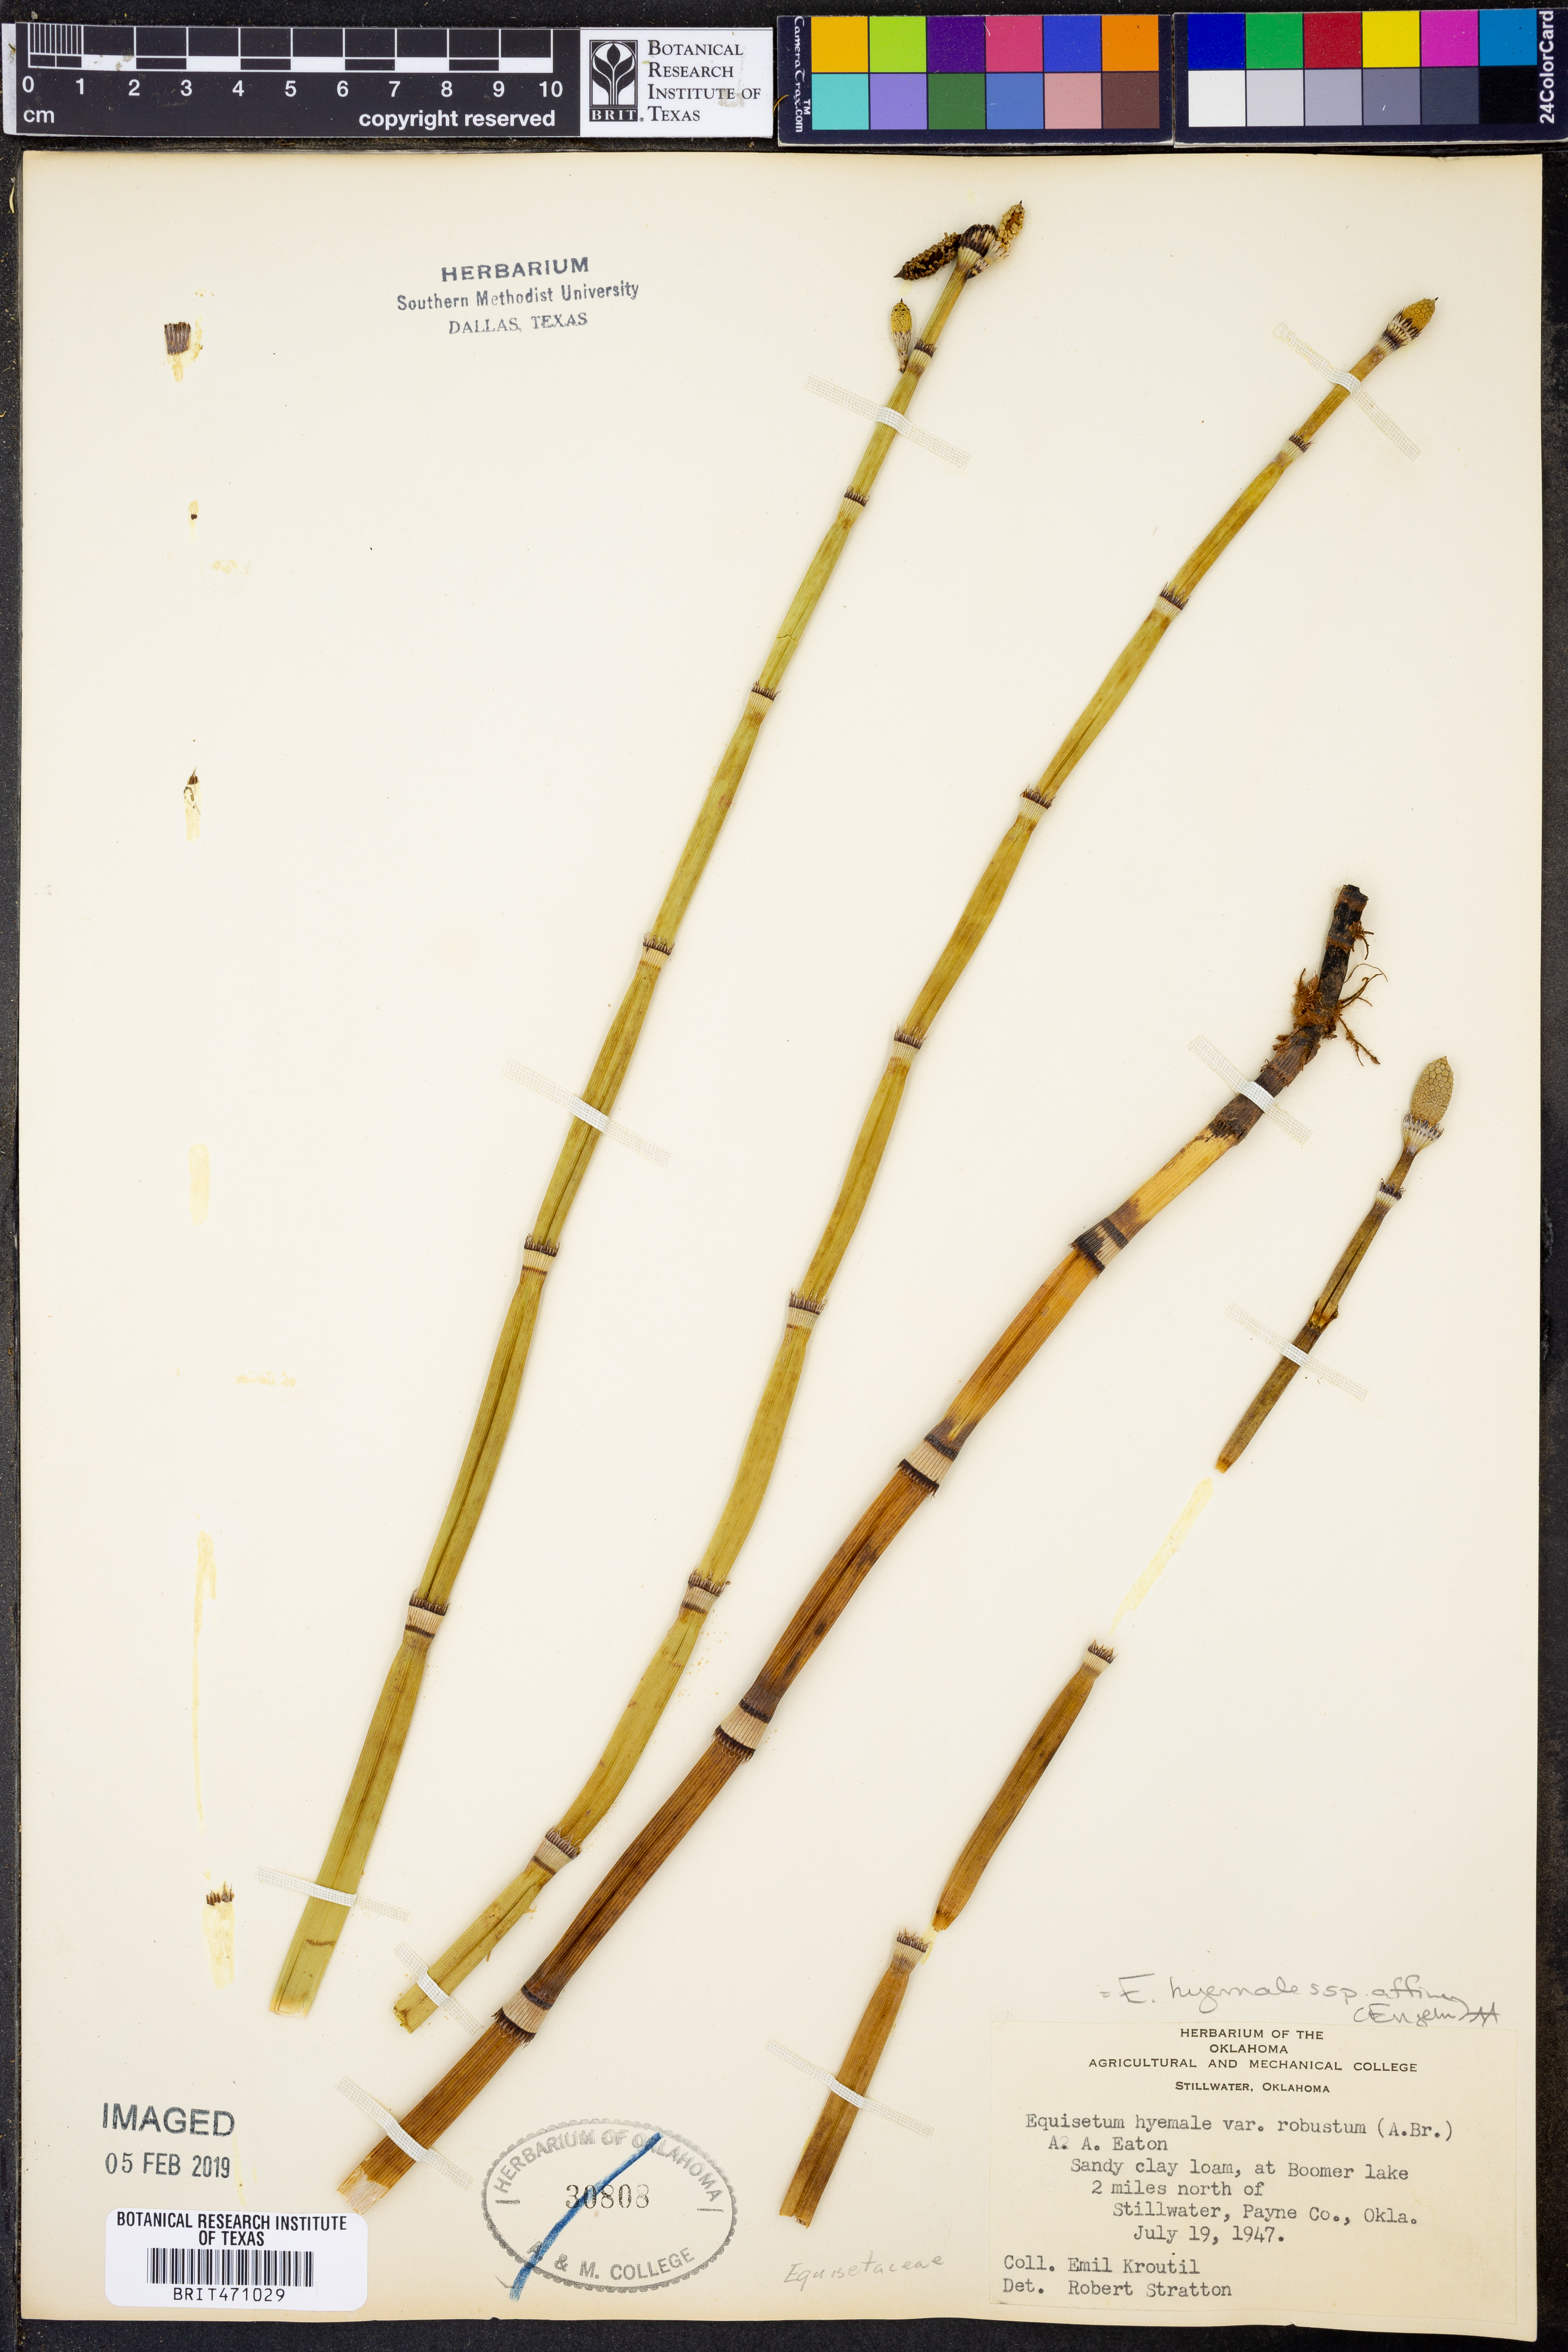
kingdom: Plantae
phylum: Tracheophyta
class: Polypodiopsida
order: Equisetales
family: Equisetaceae
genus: Equisetum
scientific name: Equisetum praealtum
